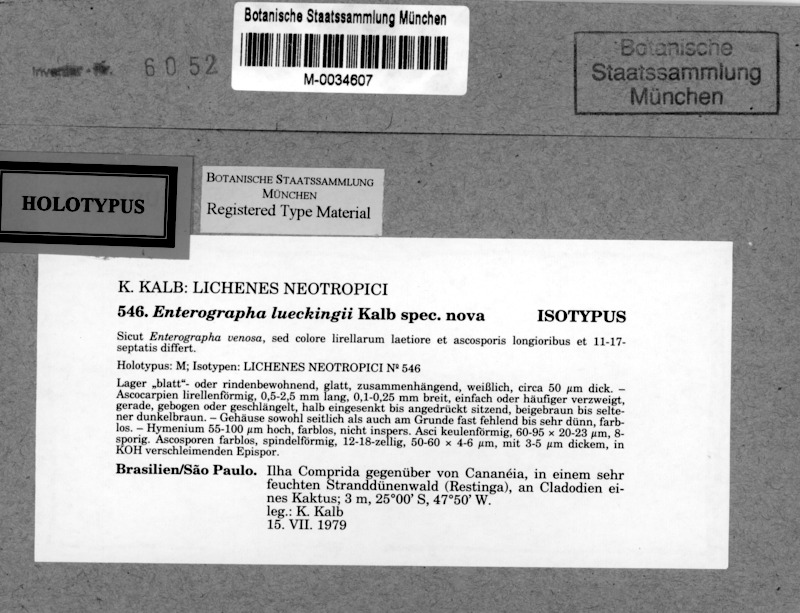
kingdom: Fungi
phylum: Ascomycota
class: Arthoniomycetes
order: Arthoniales
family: Roccellaceae
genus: Enterographa
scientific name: Enterographa lueckingii
